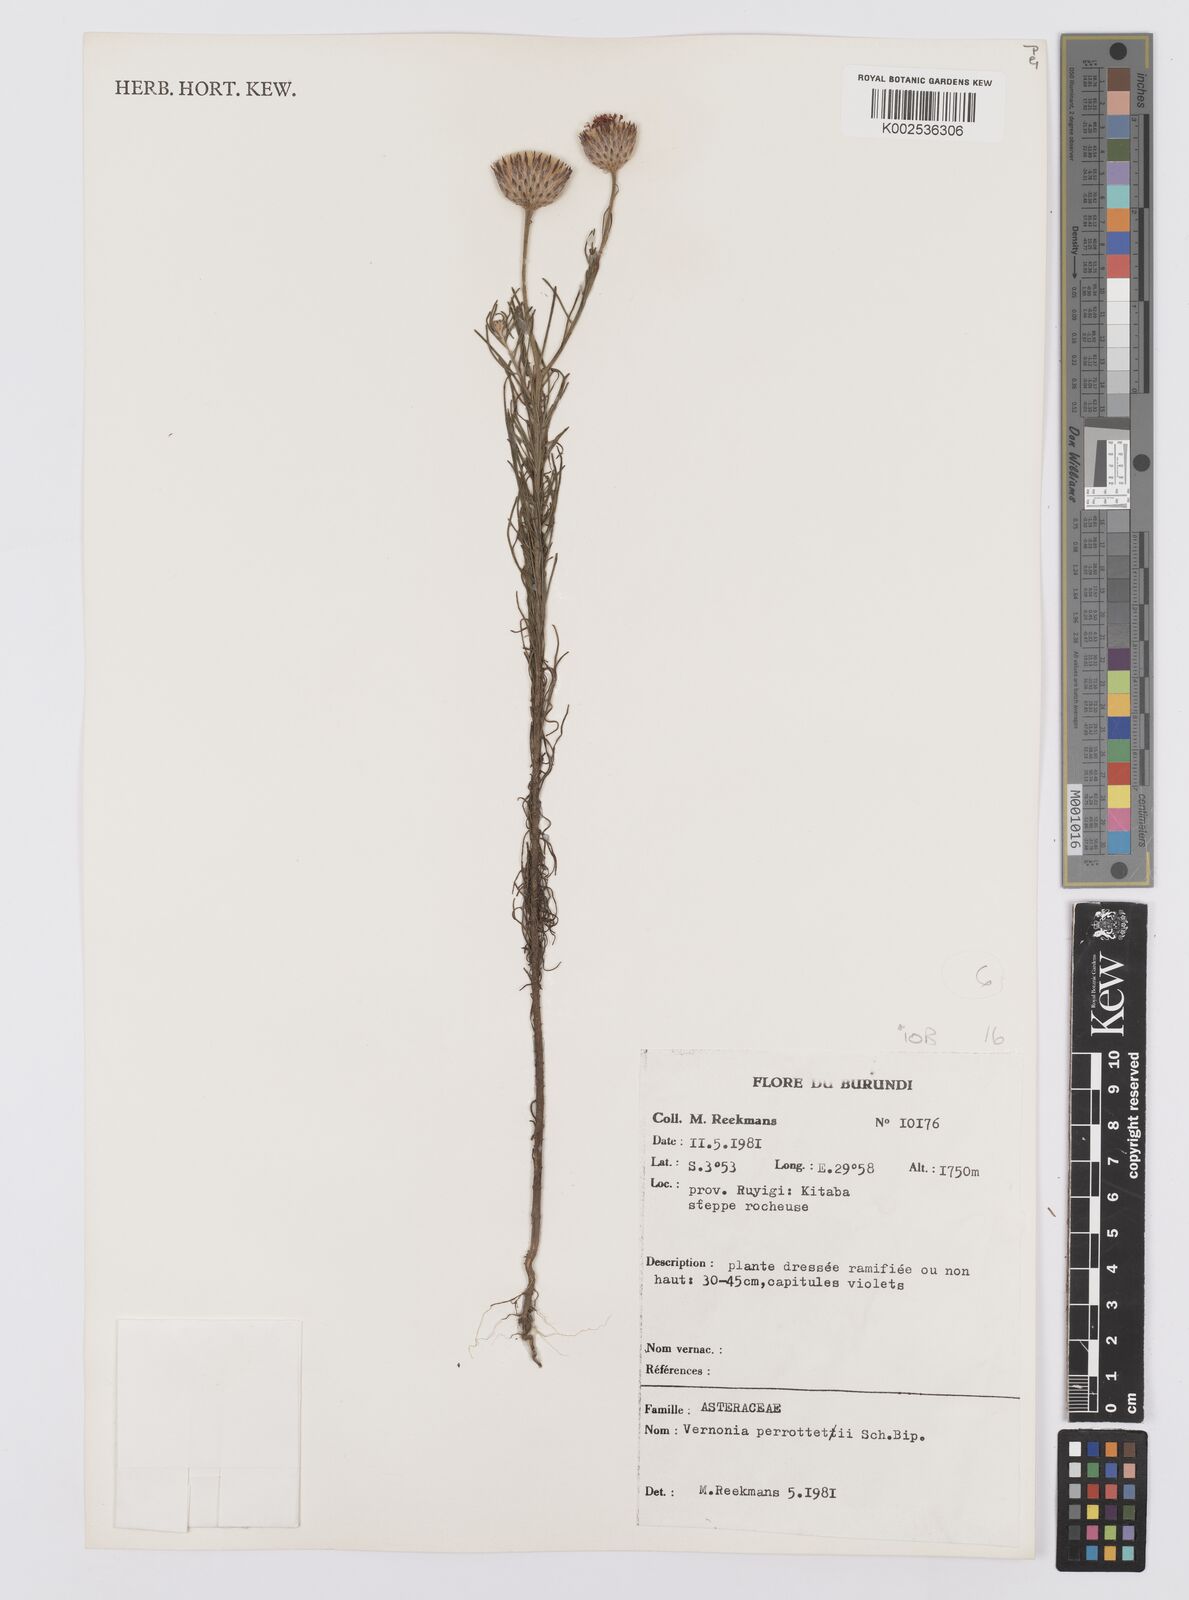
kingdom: Plantae
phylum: Tracheophyta
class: Magnoliopsida
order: Asterales
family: Asteraceae
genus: Crystallopollen
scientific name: Crystallopollen serratuloides
